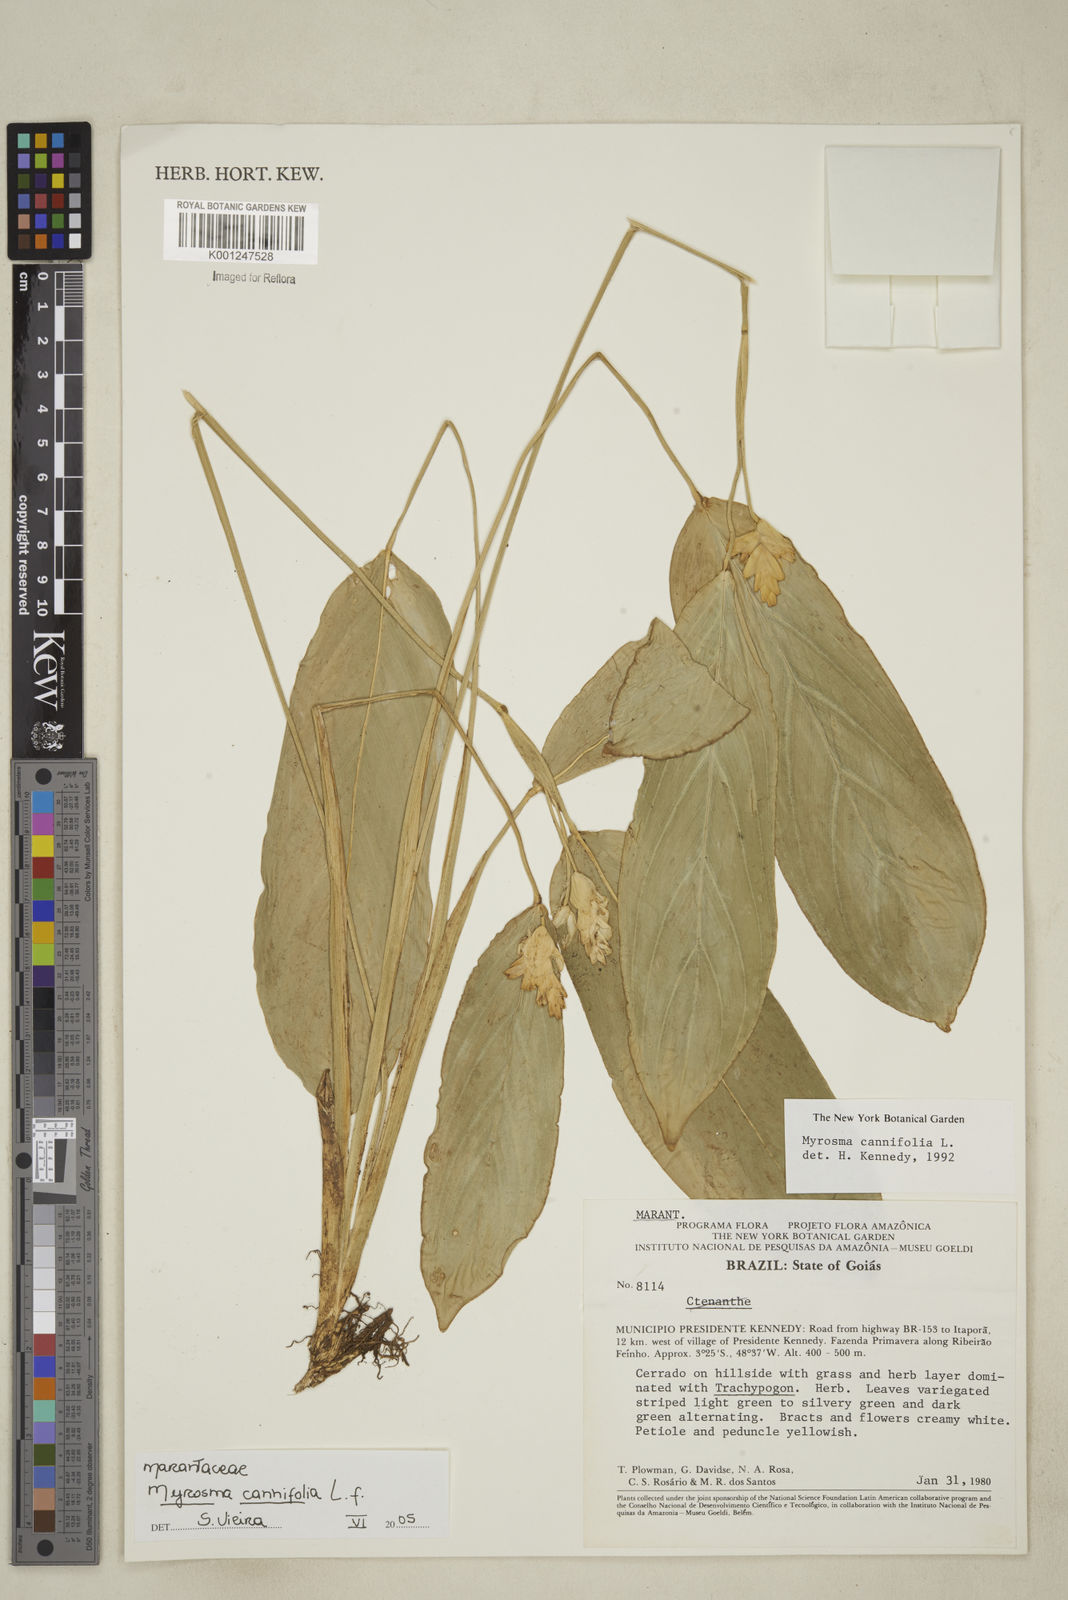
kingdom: Plantae
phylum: Tracheophyta
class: Liliopsida
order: Zingiberales
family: Marantaceae
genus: Myrosma
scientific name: Myrosma cannifolia
